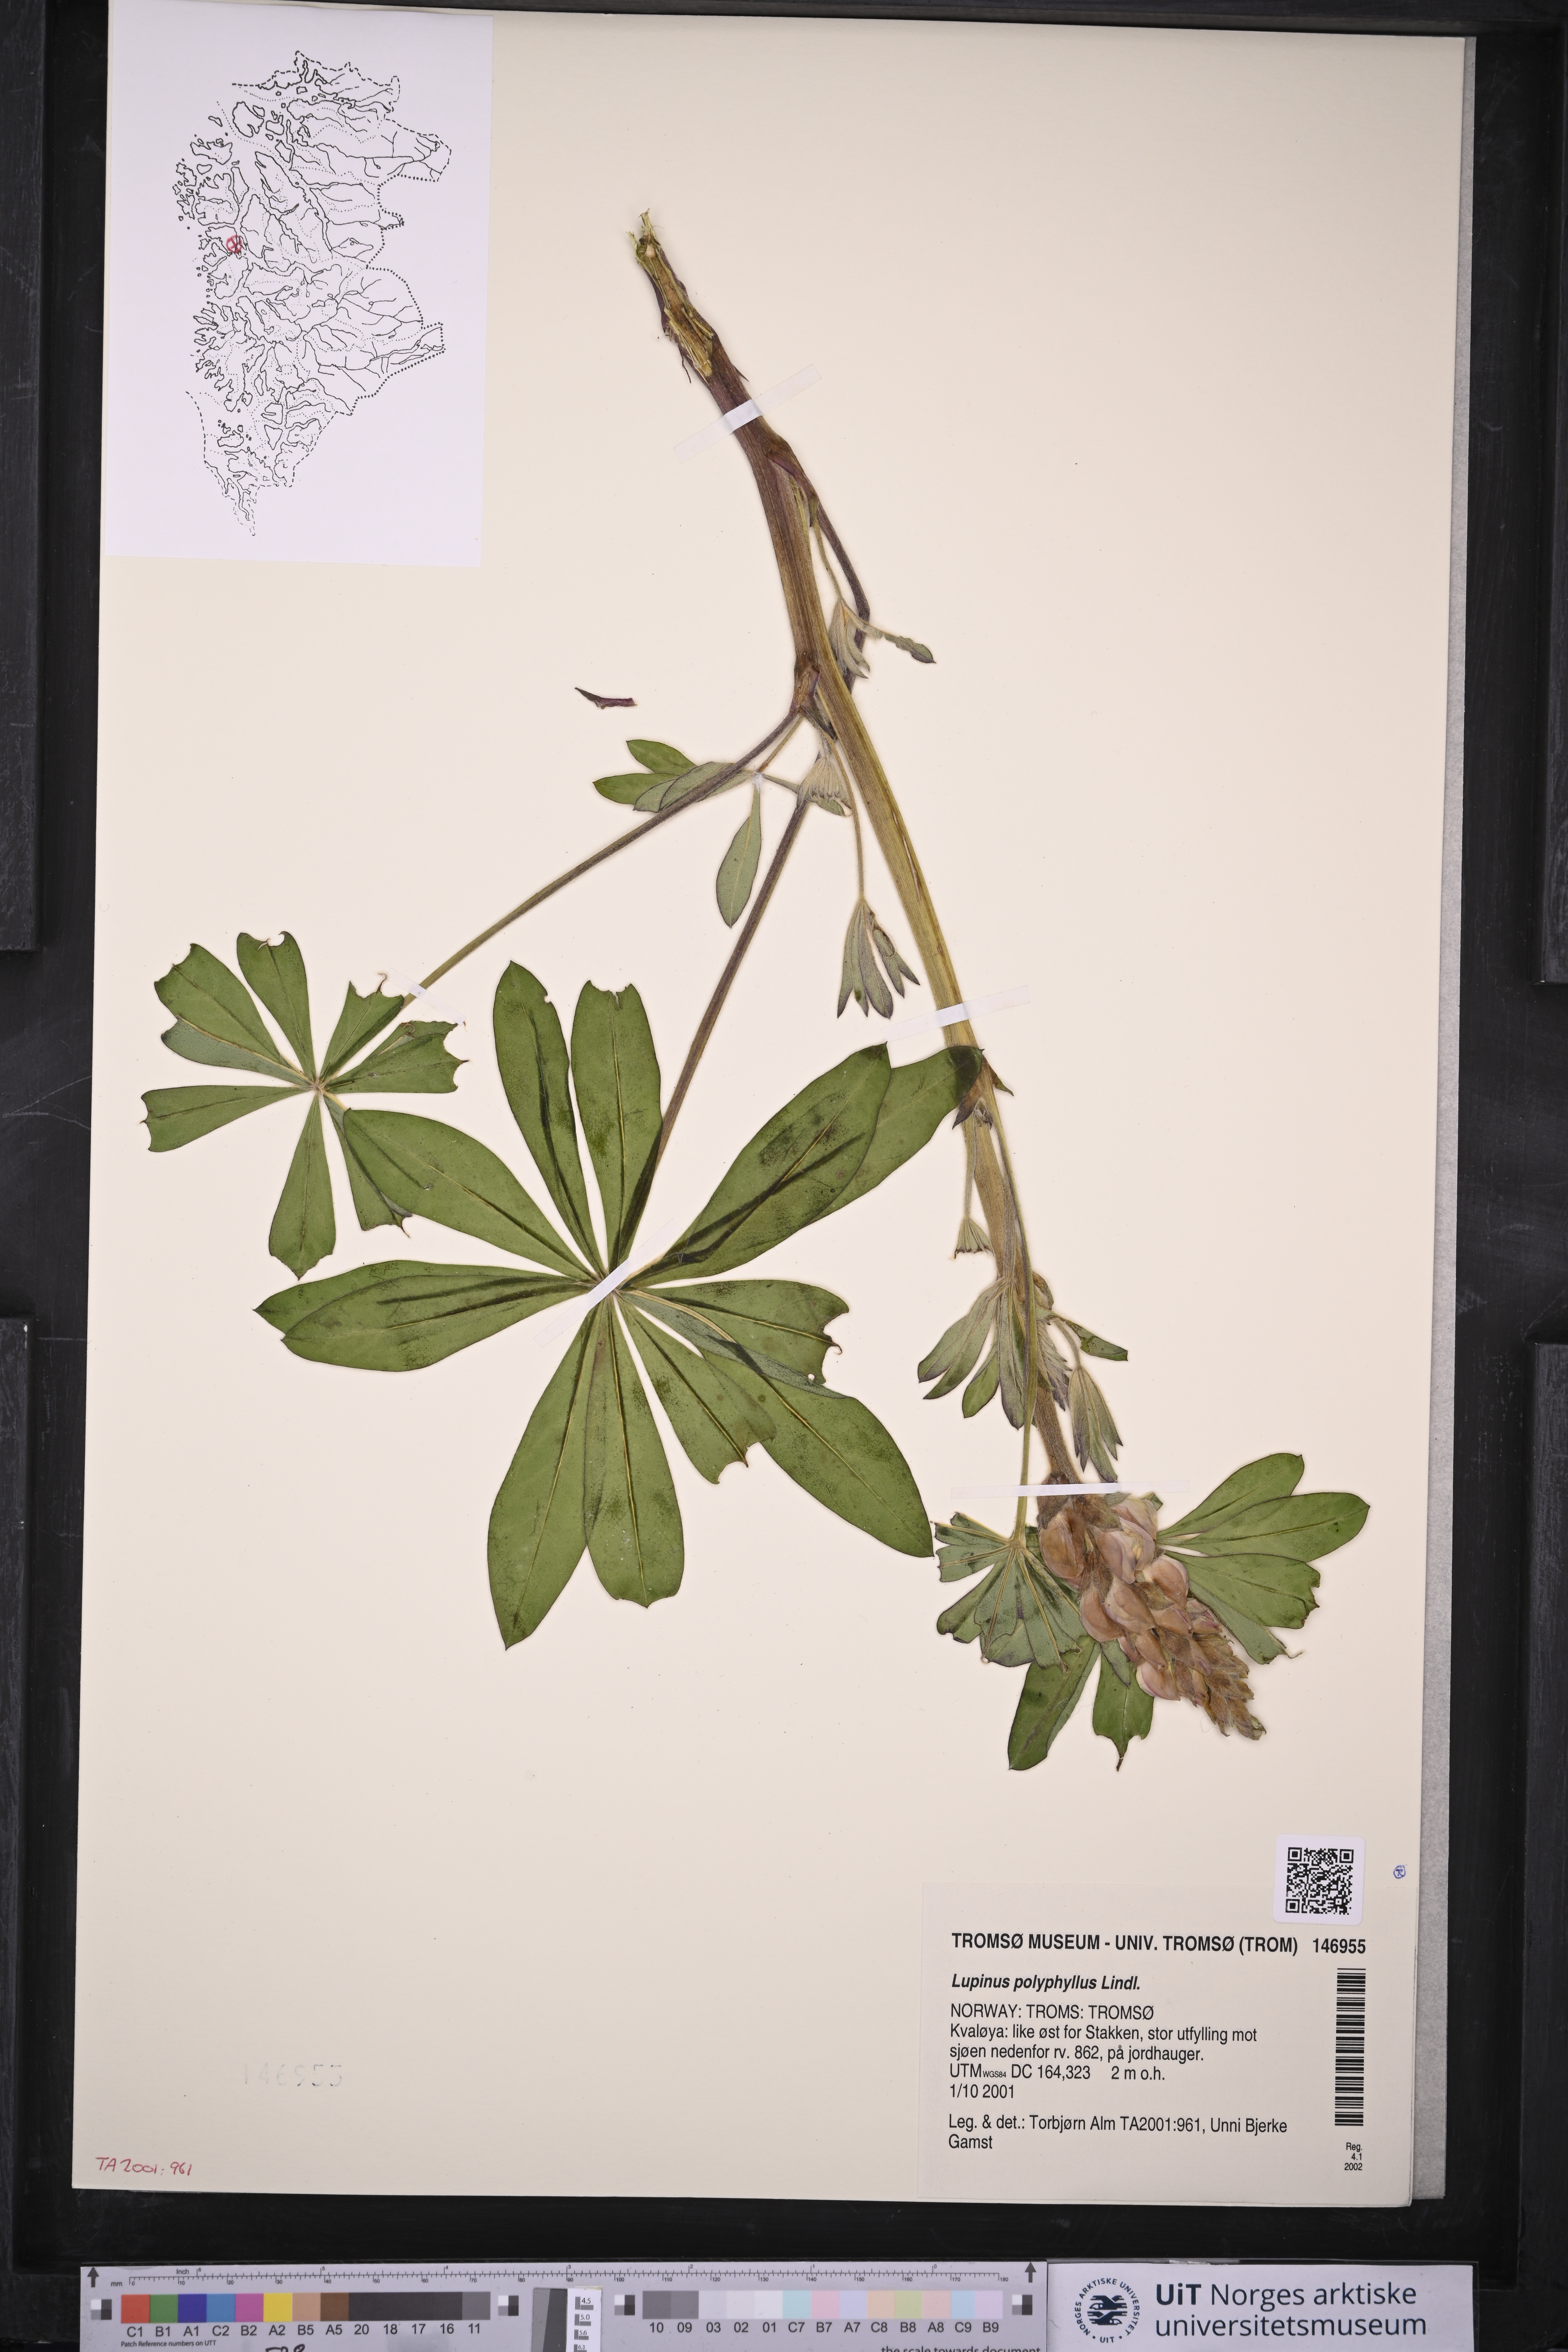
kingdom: Plantae
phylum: Tracheophyta
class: Magnoliopsida
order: Fabales
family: Fabaceae
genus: Lupinus
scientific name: Lupinus polyphyllus
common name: Garden lupin
